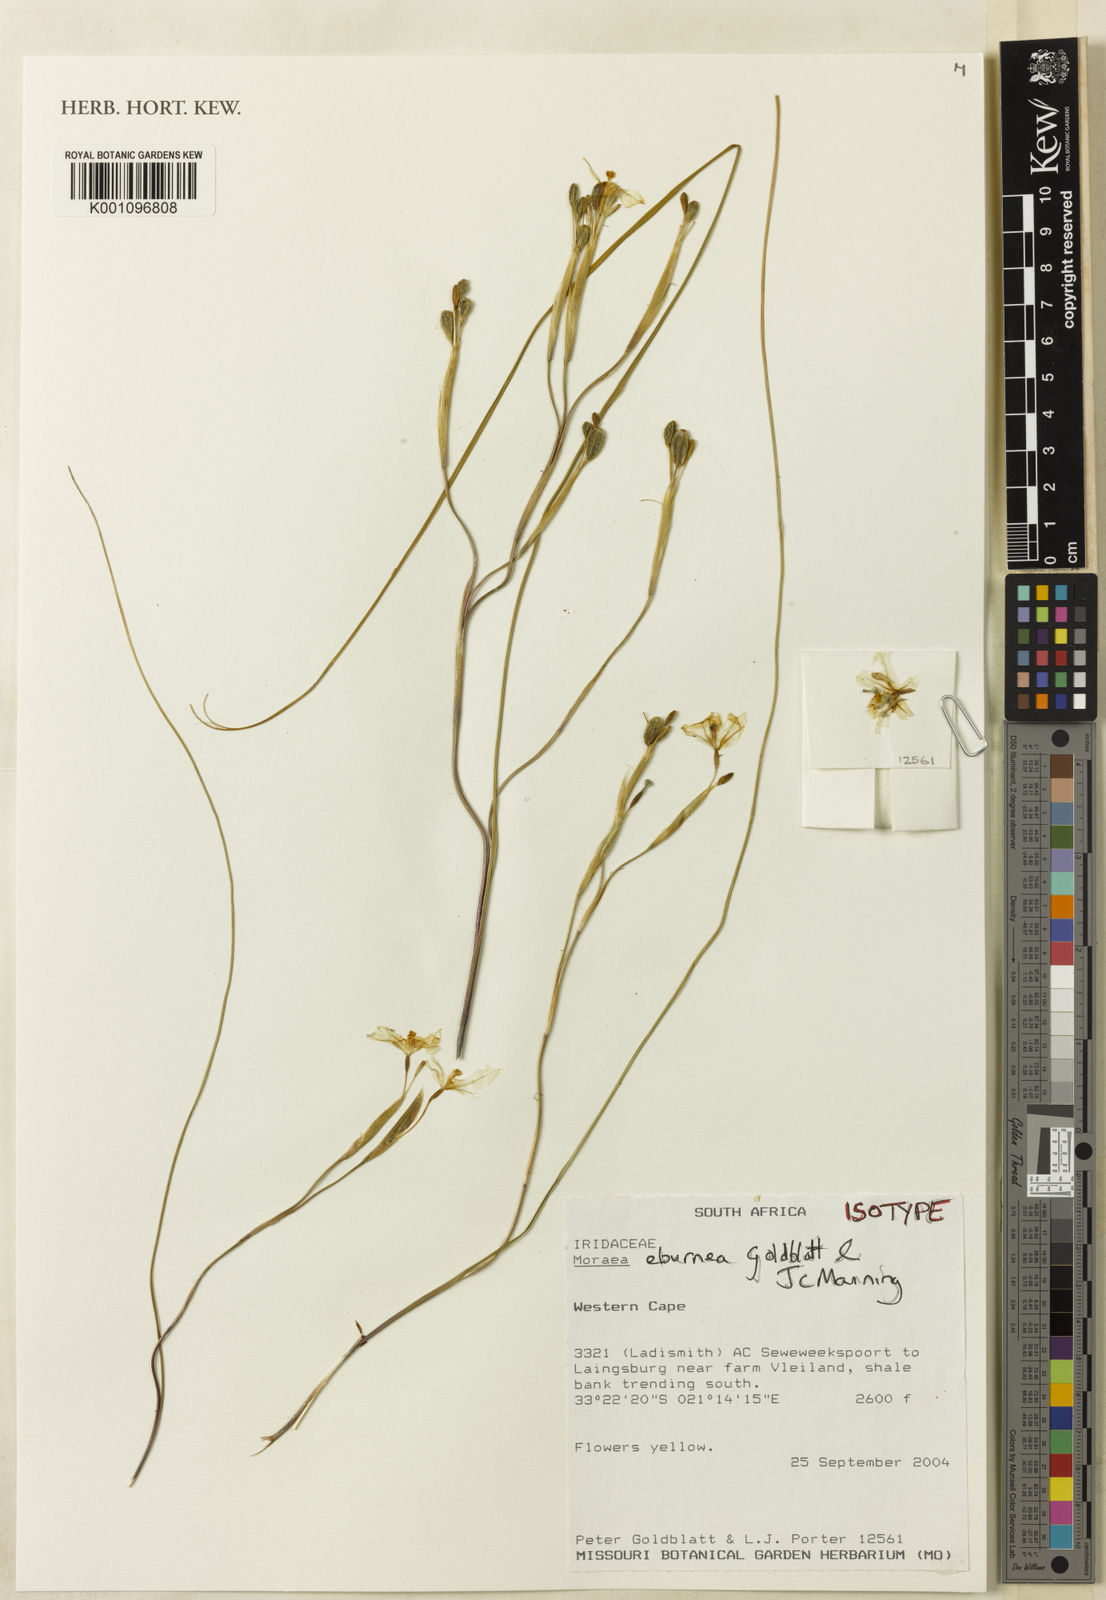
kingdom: Plantae
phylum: Tracheophyta
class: Liliopsida
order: Asparagales
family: Iridaceae
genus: Moraea
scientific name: Moraea eburnea
